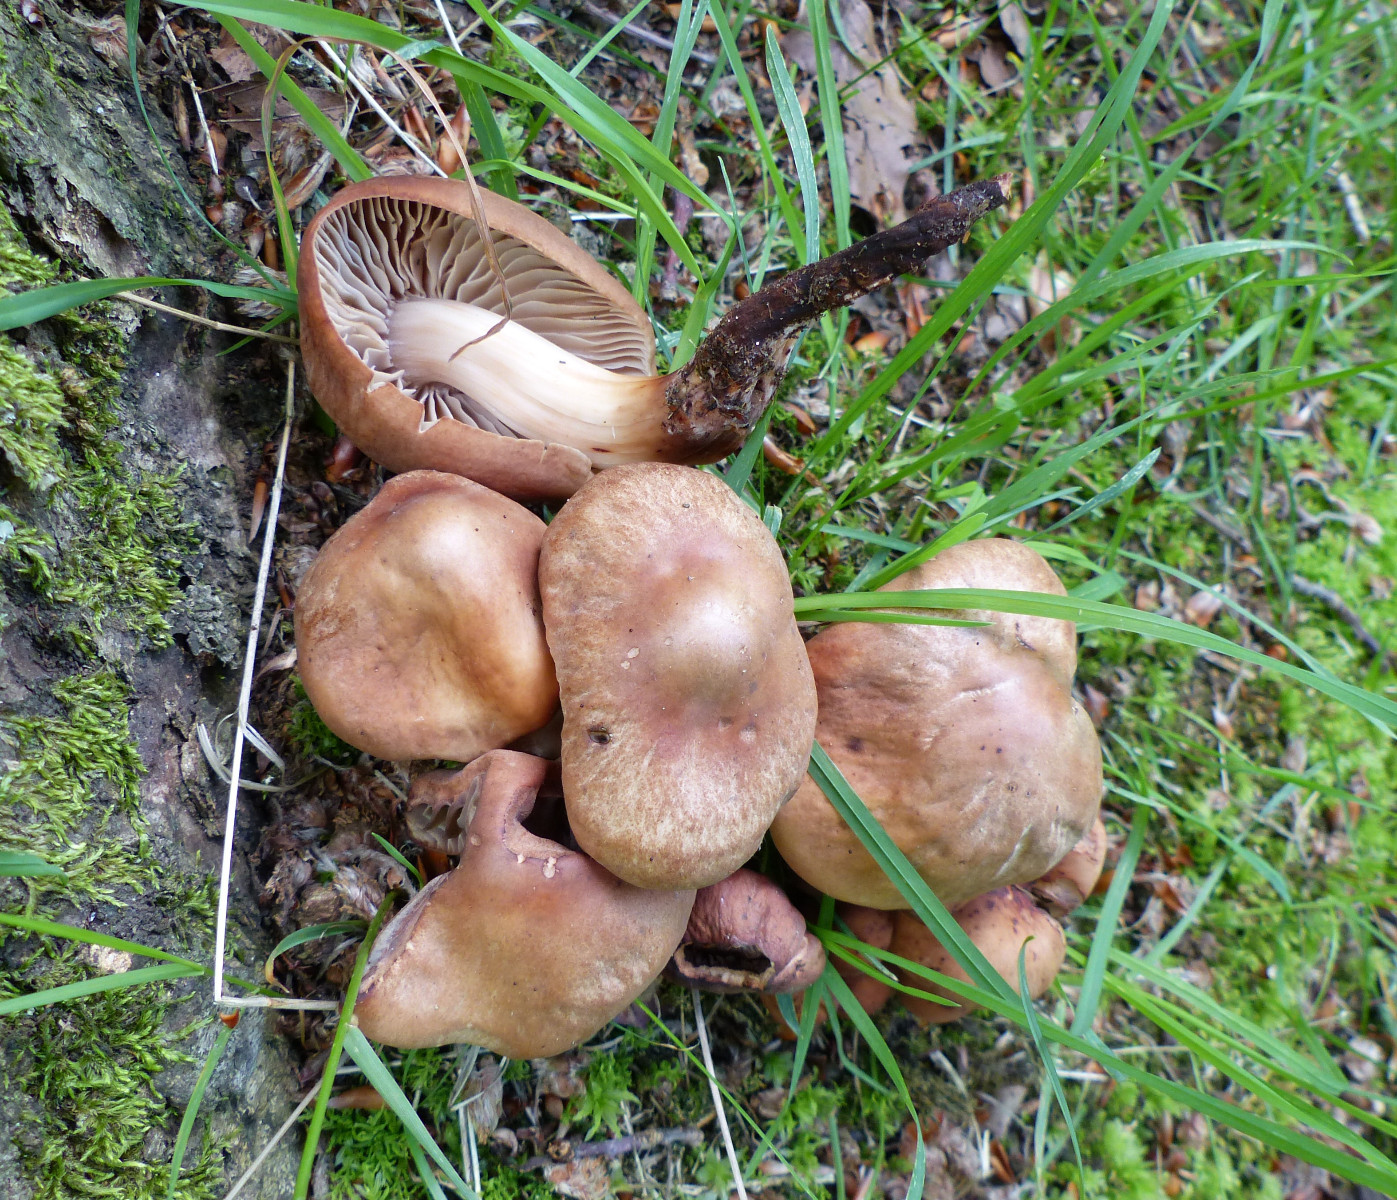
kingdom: Fungi
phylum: Basidiomycota
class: Agaricomycetes
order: Agaricales
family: Omphalotaceae
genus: Gymnopus
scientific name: Gymnopus fusipes
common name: tenstokket fladhat
